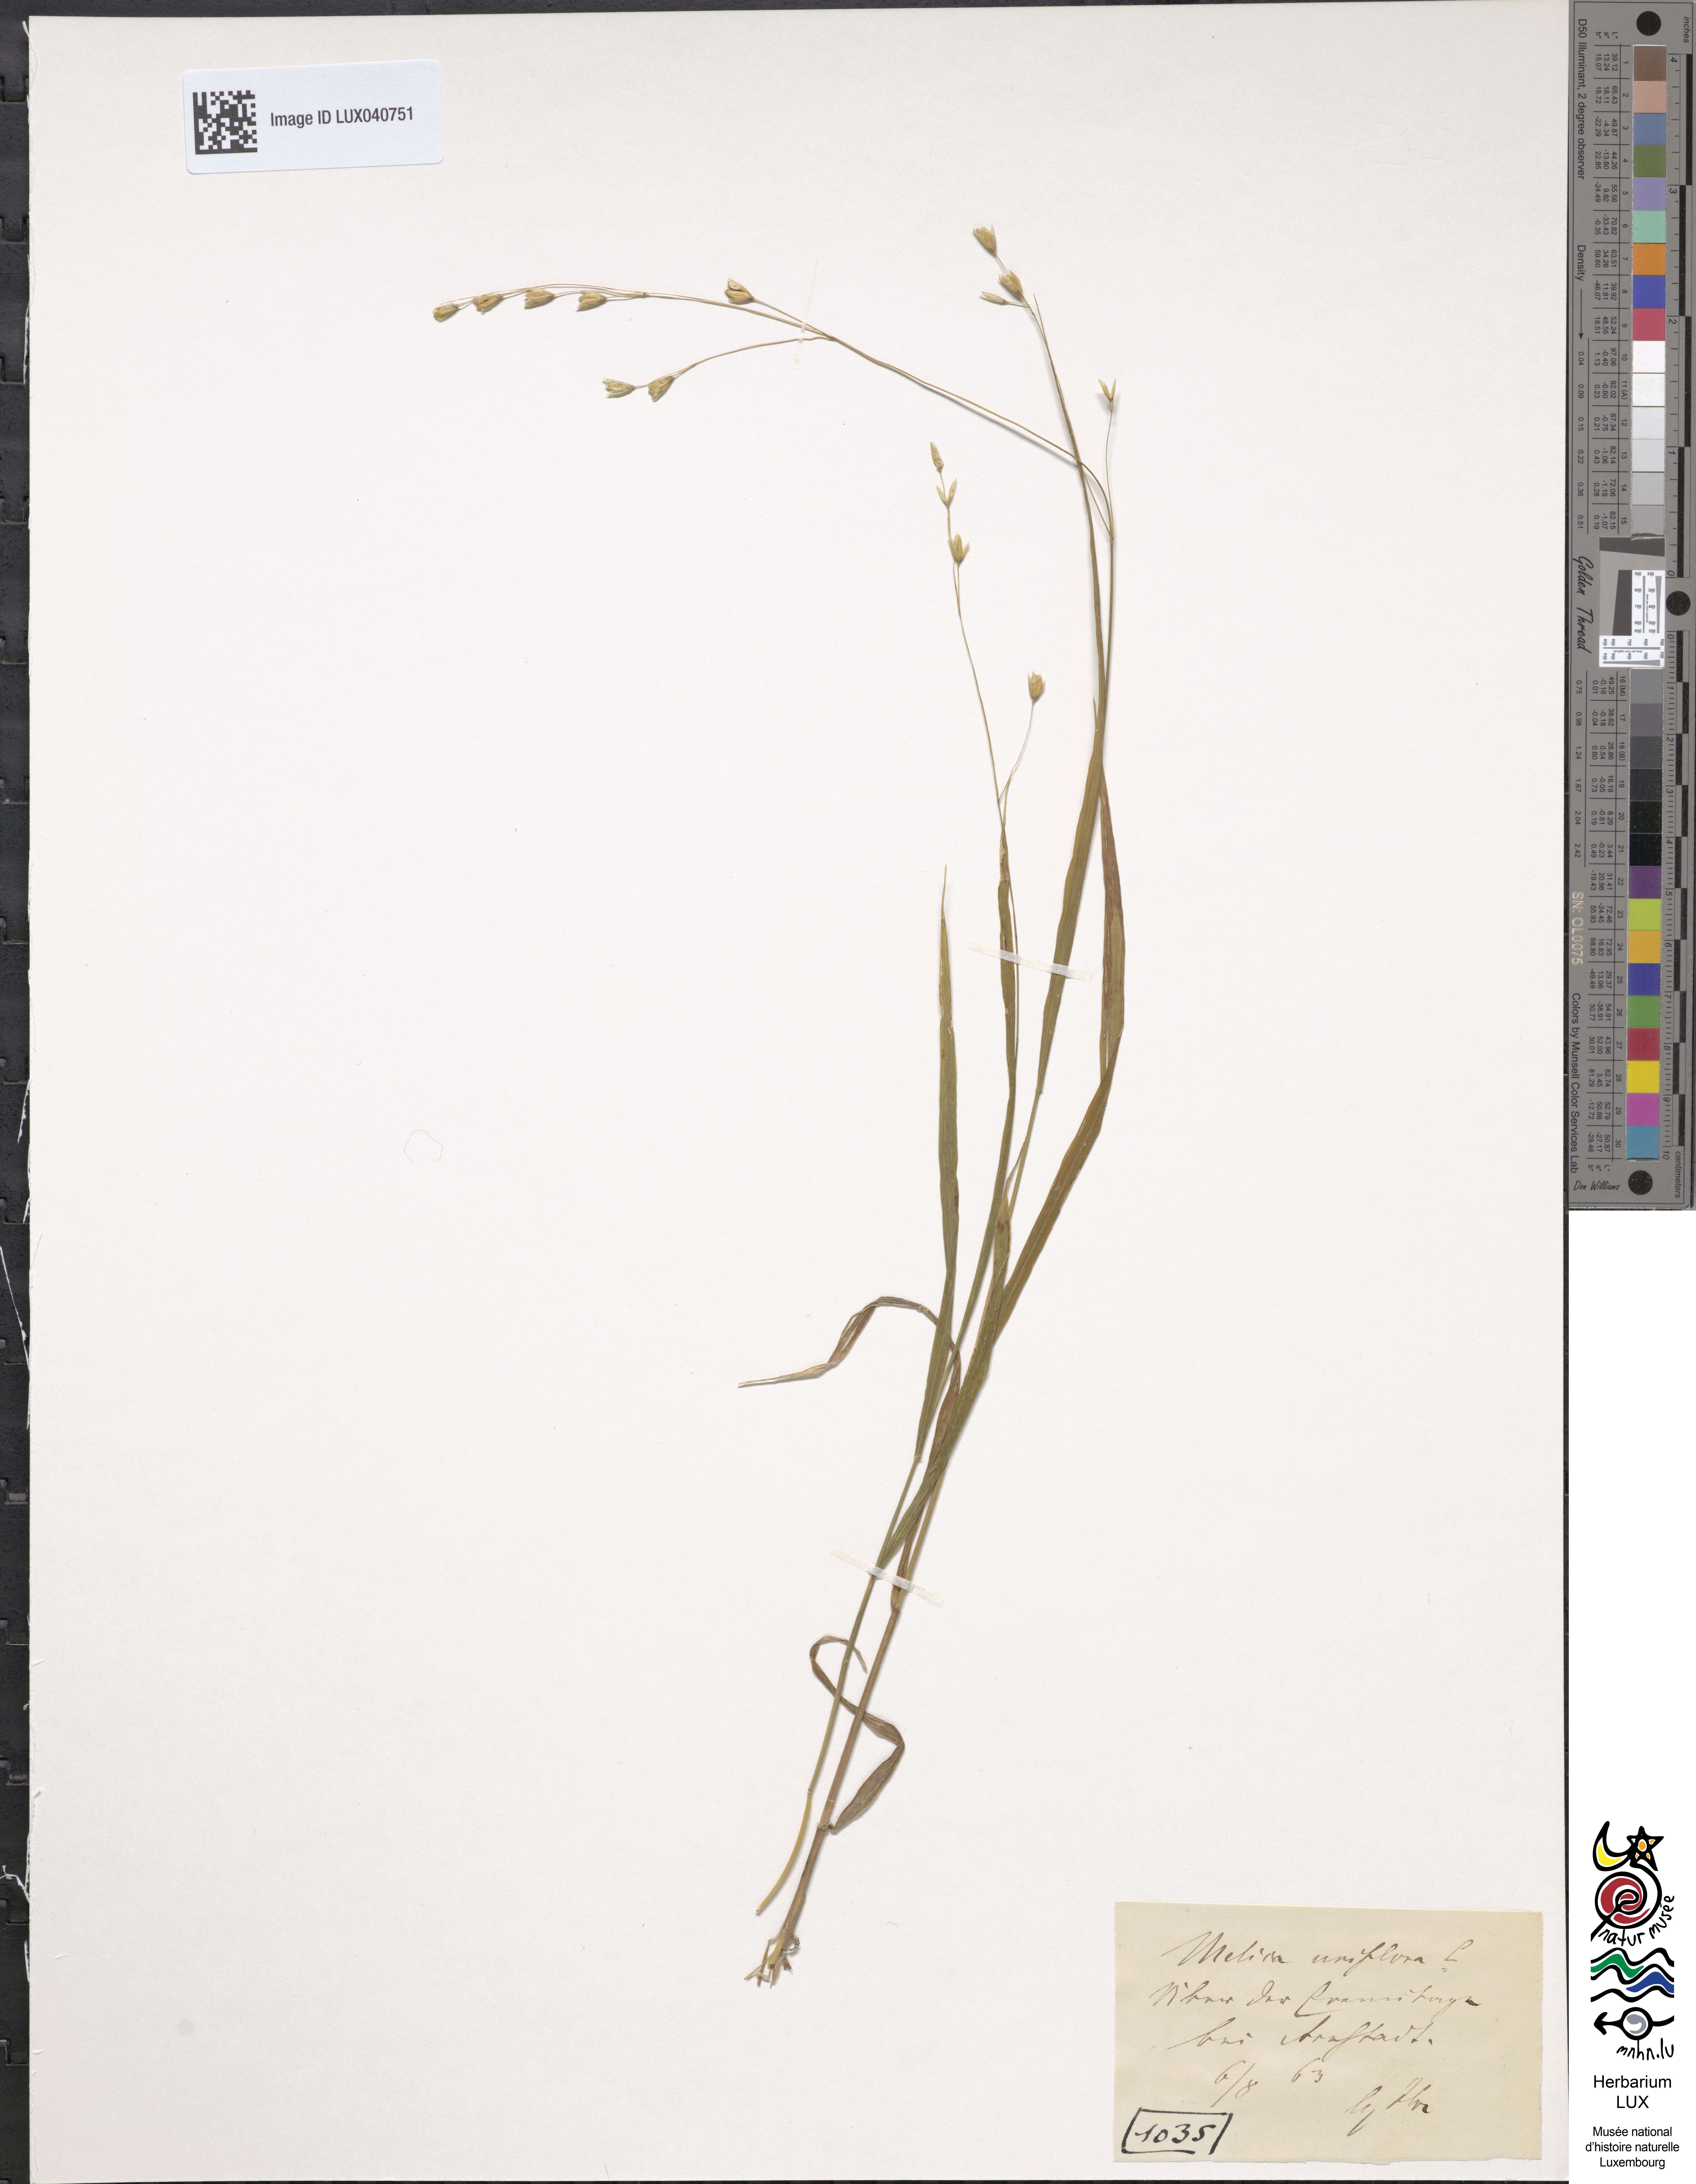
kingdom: Plantae
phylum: Tracheophyta
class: Liliopsida
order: Poales
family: Poaceae
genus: Melica
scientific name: Melica uniflora
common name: Wood melick
